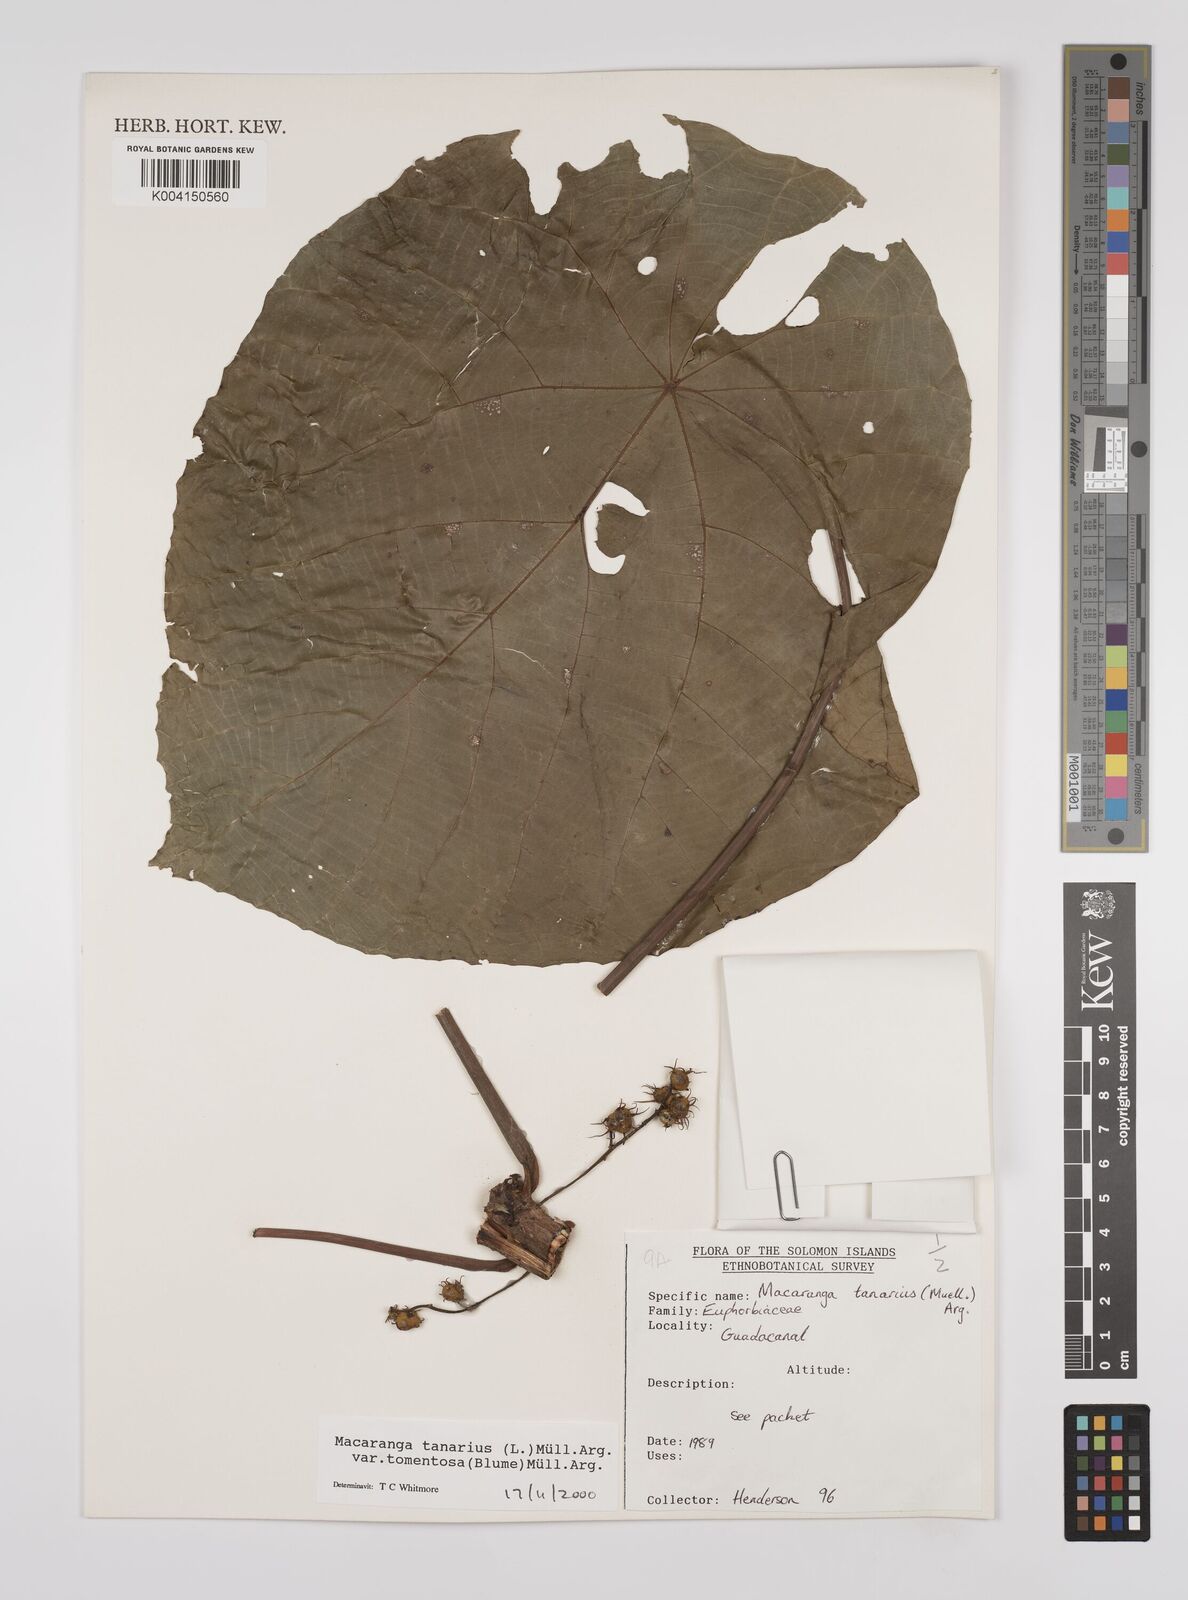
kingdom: Plantae
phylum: Tracheophyta
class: Magnoliopsida
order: Malpighiales
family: Euphorbiaceae
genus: Macaranga
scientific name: Macaranga tanarius
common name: Parasol leaf tree
